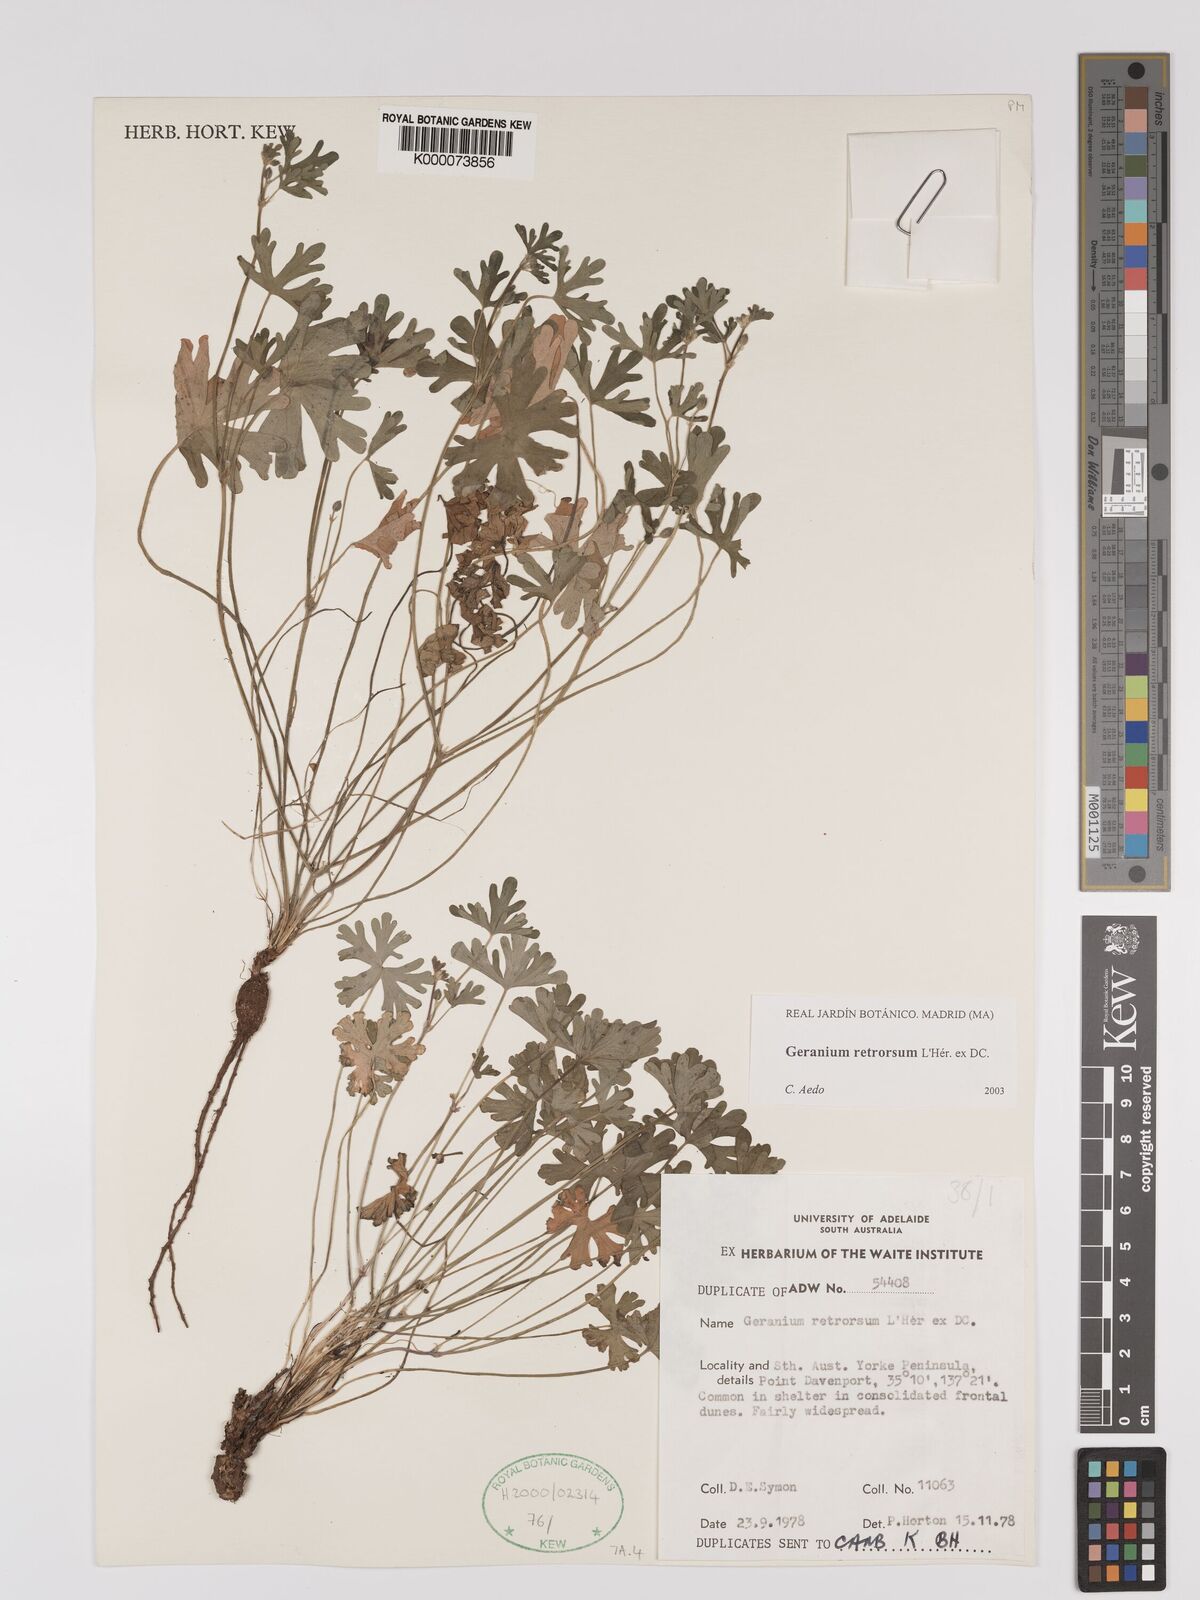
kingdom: Plantae
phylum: Tracheophyta
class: Magnoliopsida
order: Geraniales
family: Geraniaceae
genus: Geranium
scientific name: Geranium retrorsum
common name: New zealand geranium
